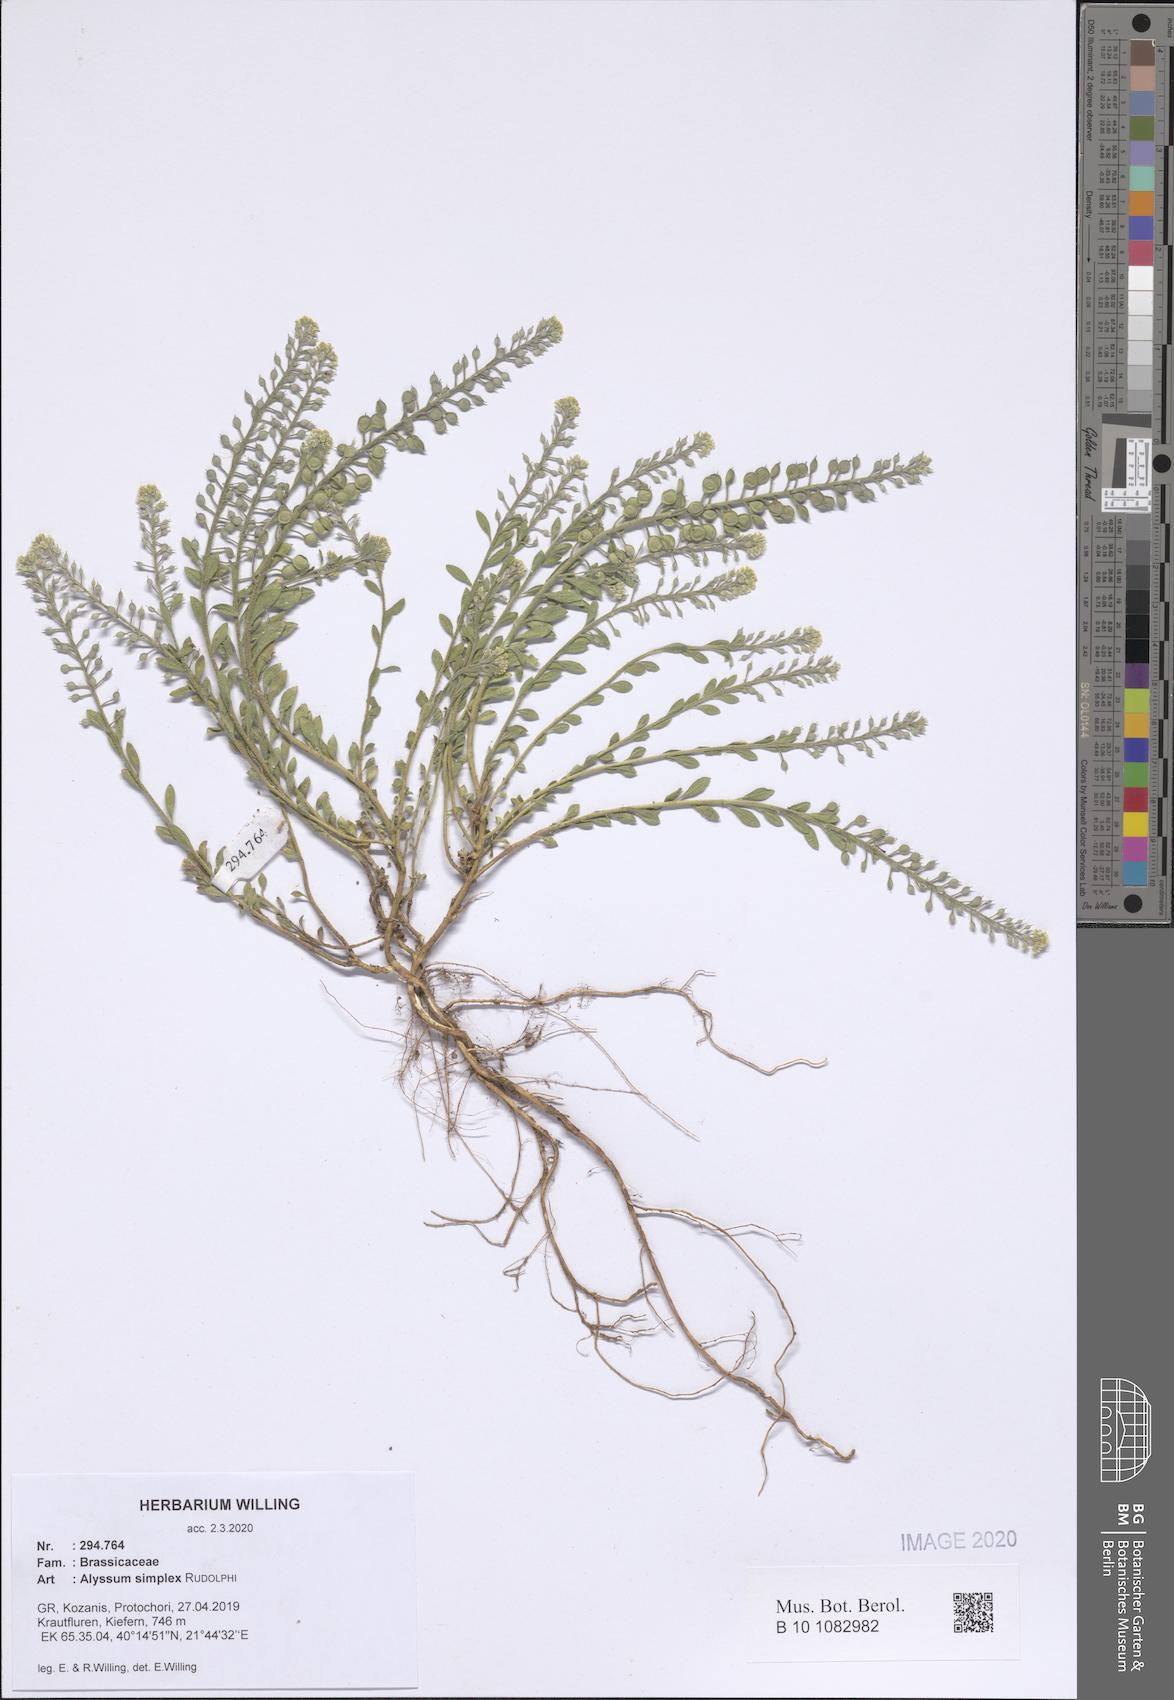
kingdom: Plantae
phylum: Tracheophyta
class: Magnoliopsida
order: Brassicales
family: Brassicaceae
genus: Alyssum
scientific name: Alyssum simplex
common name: Alyssum
